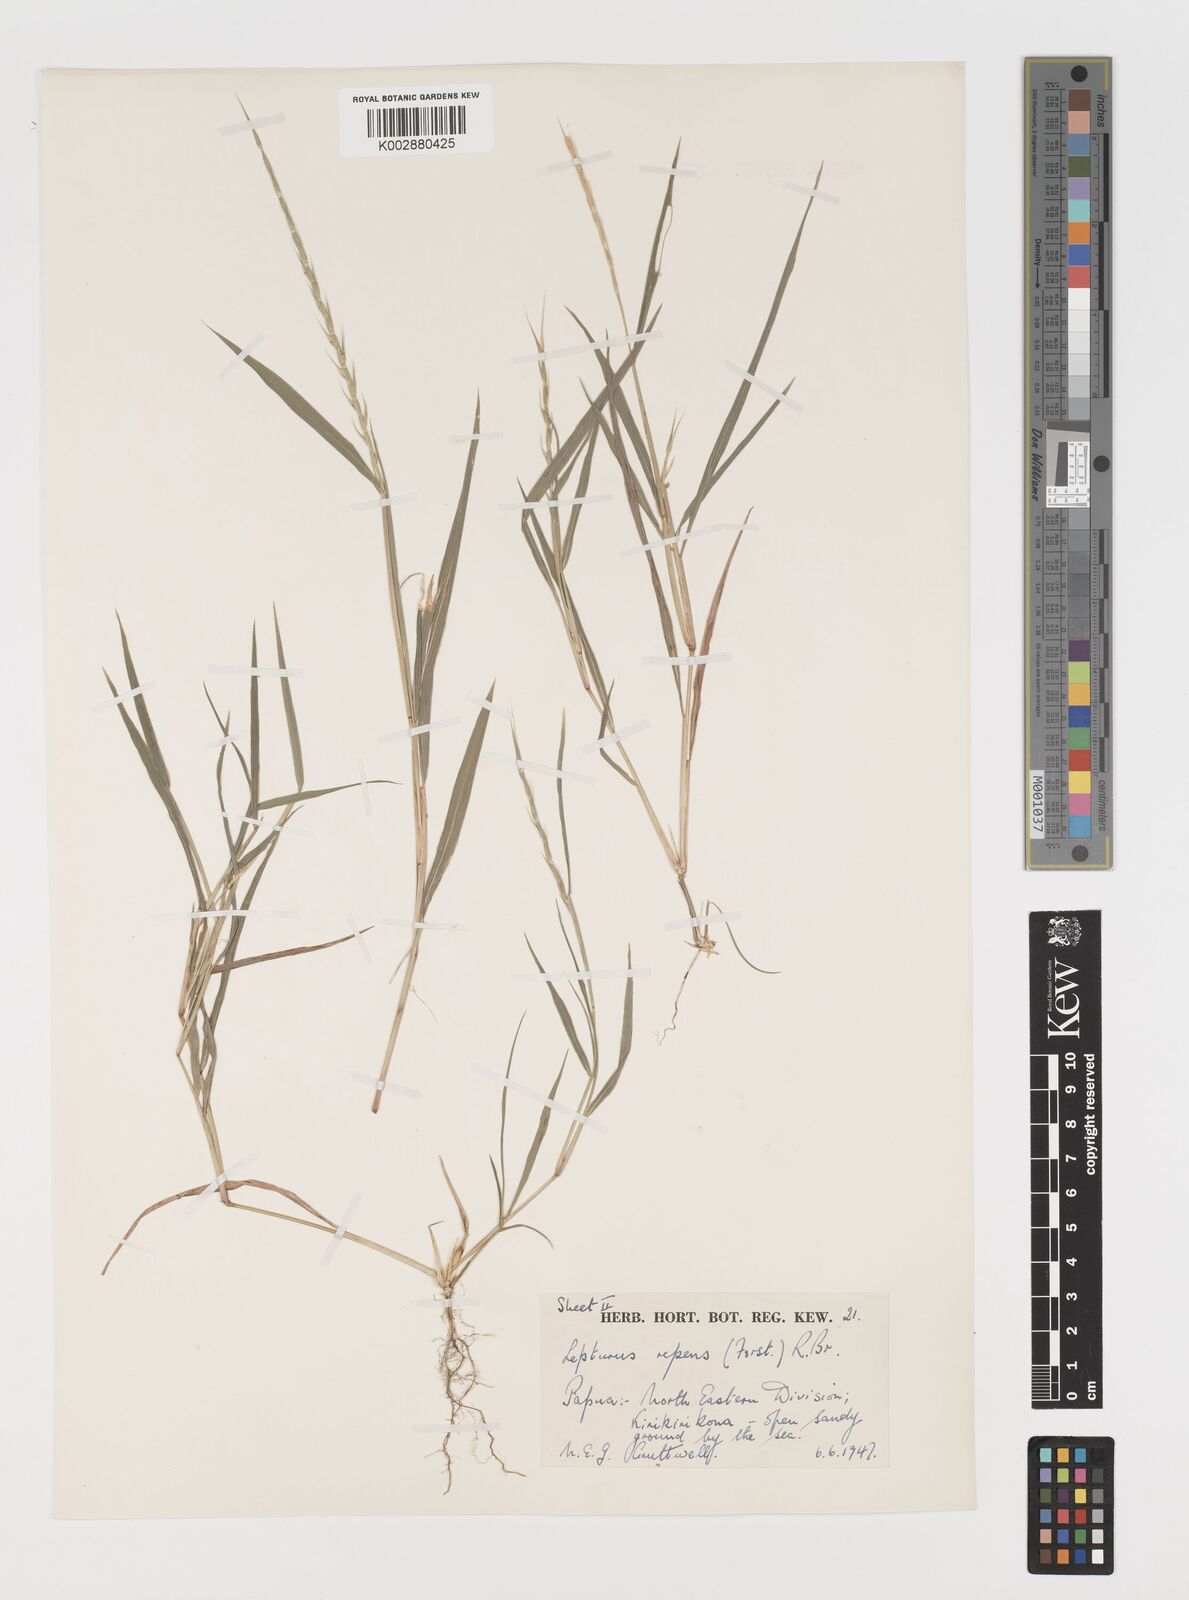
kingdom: Plantae
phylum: Tracheophyta
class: Liliopsida
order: Poales
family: Poaceae
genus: Lepturus
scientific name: Lepturus repens
